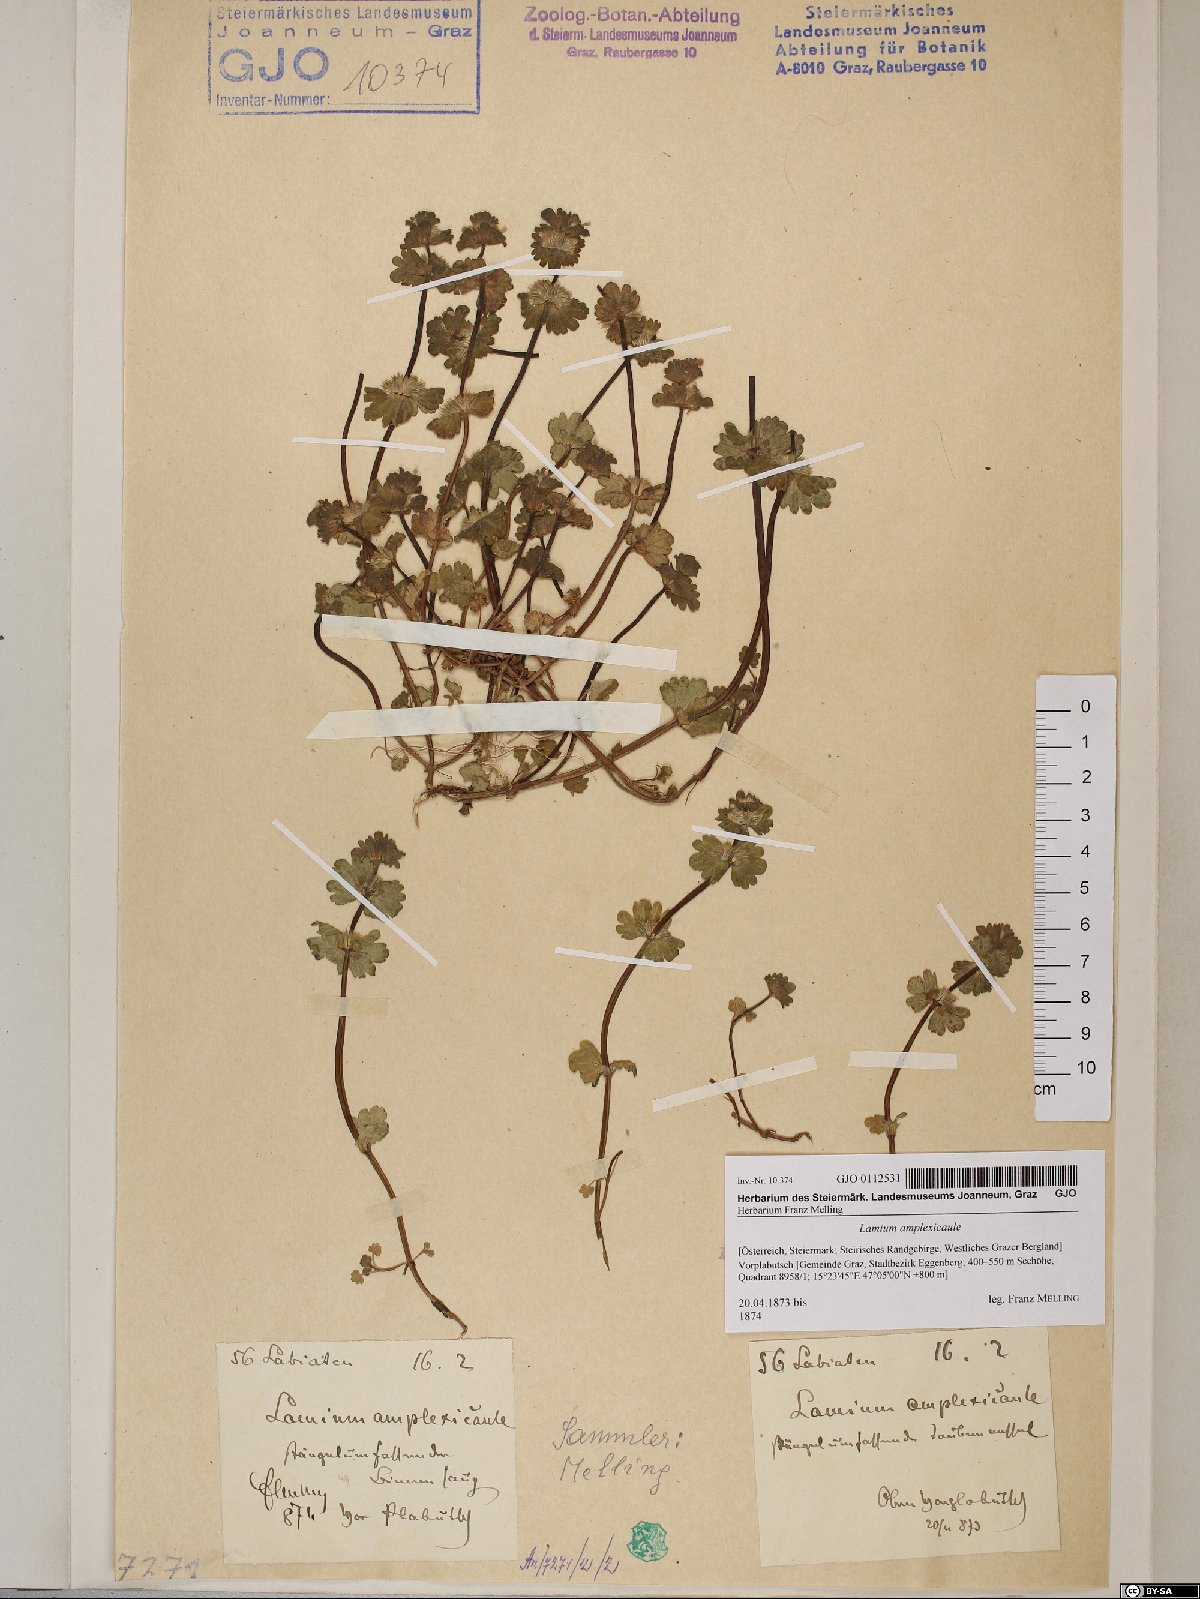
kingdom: Plantae
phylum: Tracheophyta
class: Magnoliopsida
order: Lamiales
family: Lamiaceae
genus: Lamium
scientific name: Lamium amplexicaule
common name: Henbit dead-nettle
